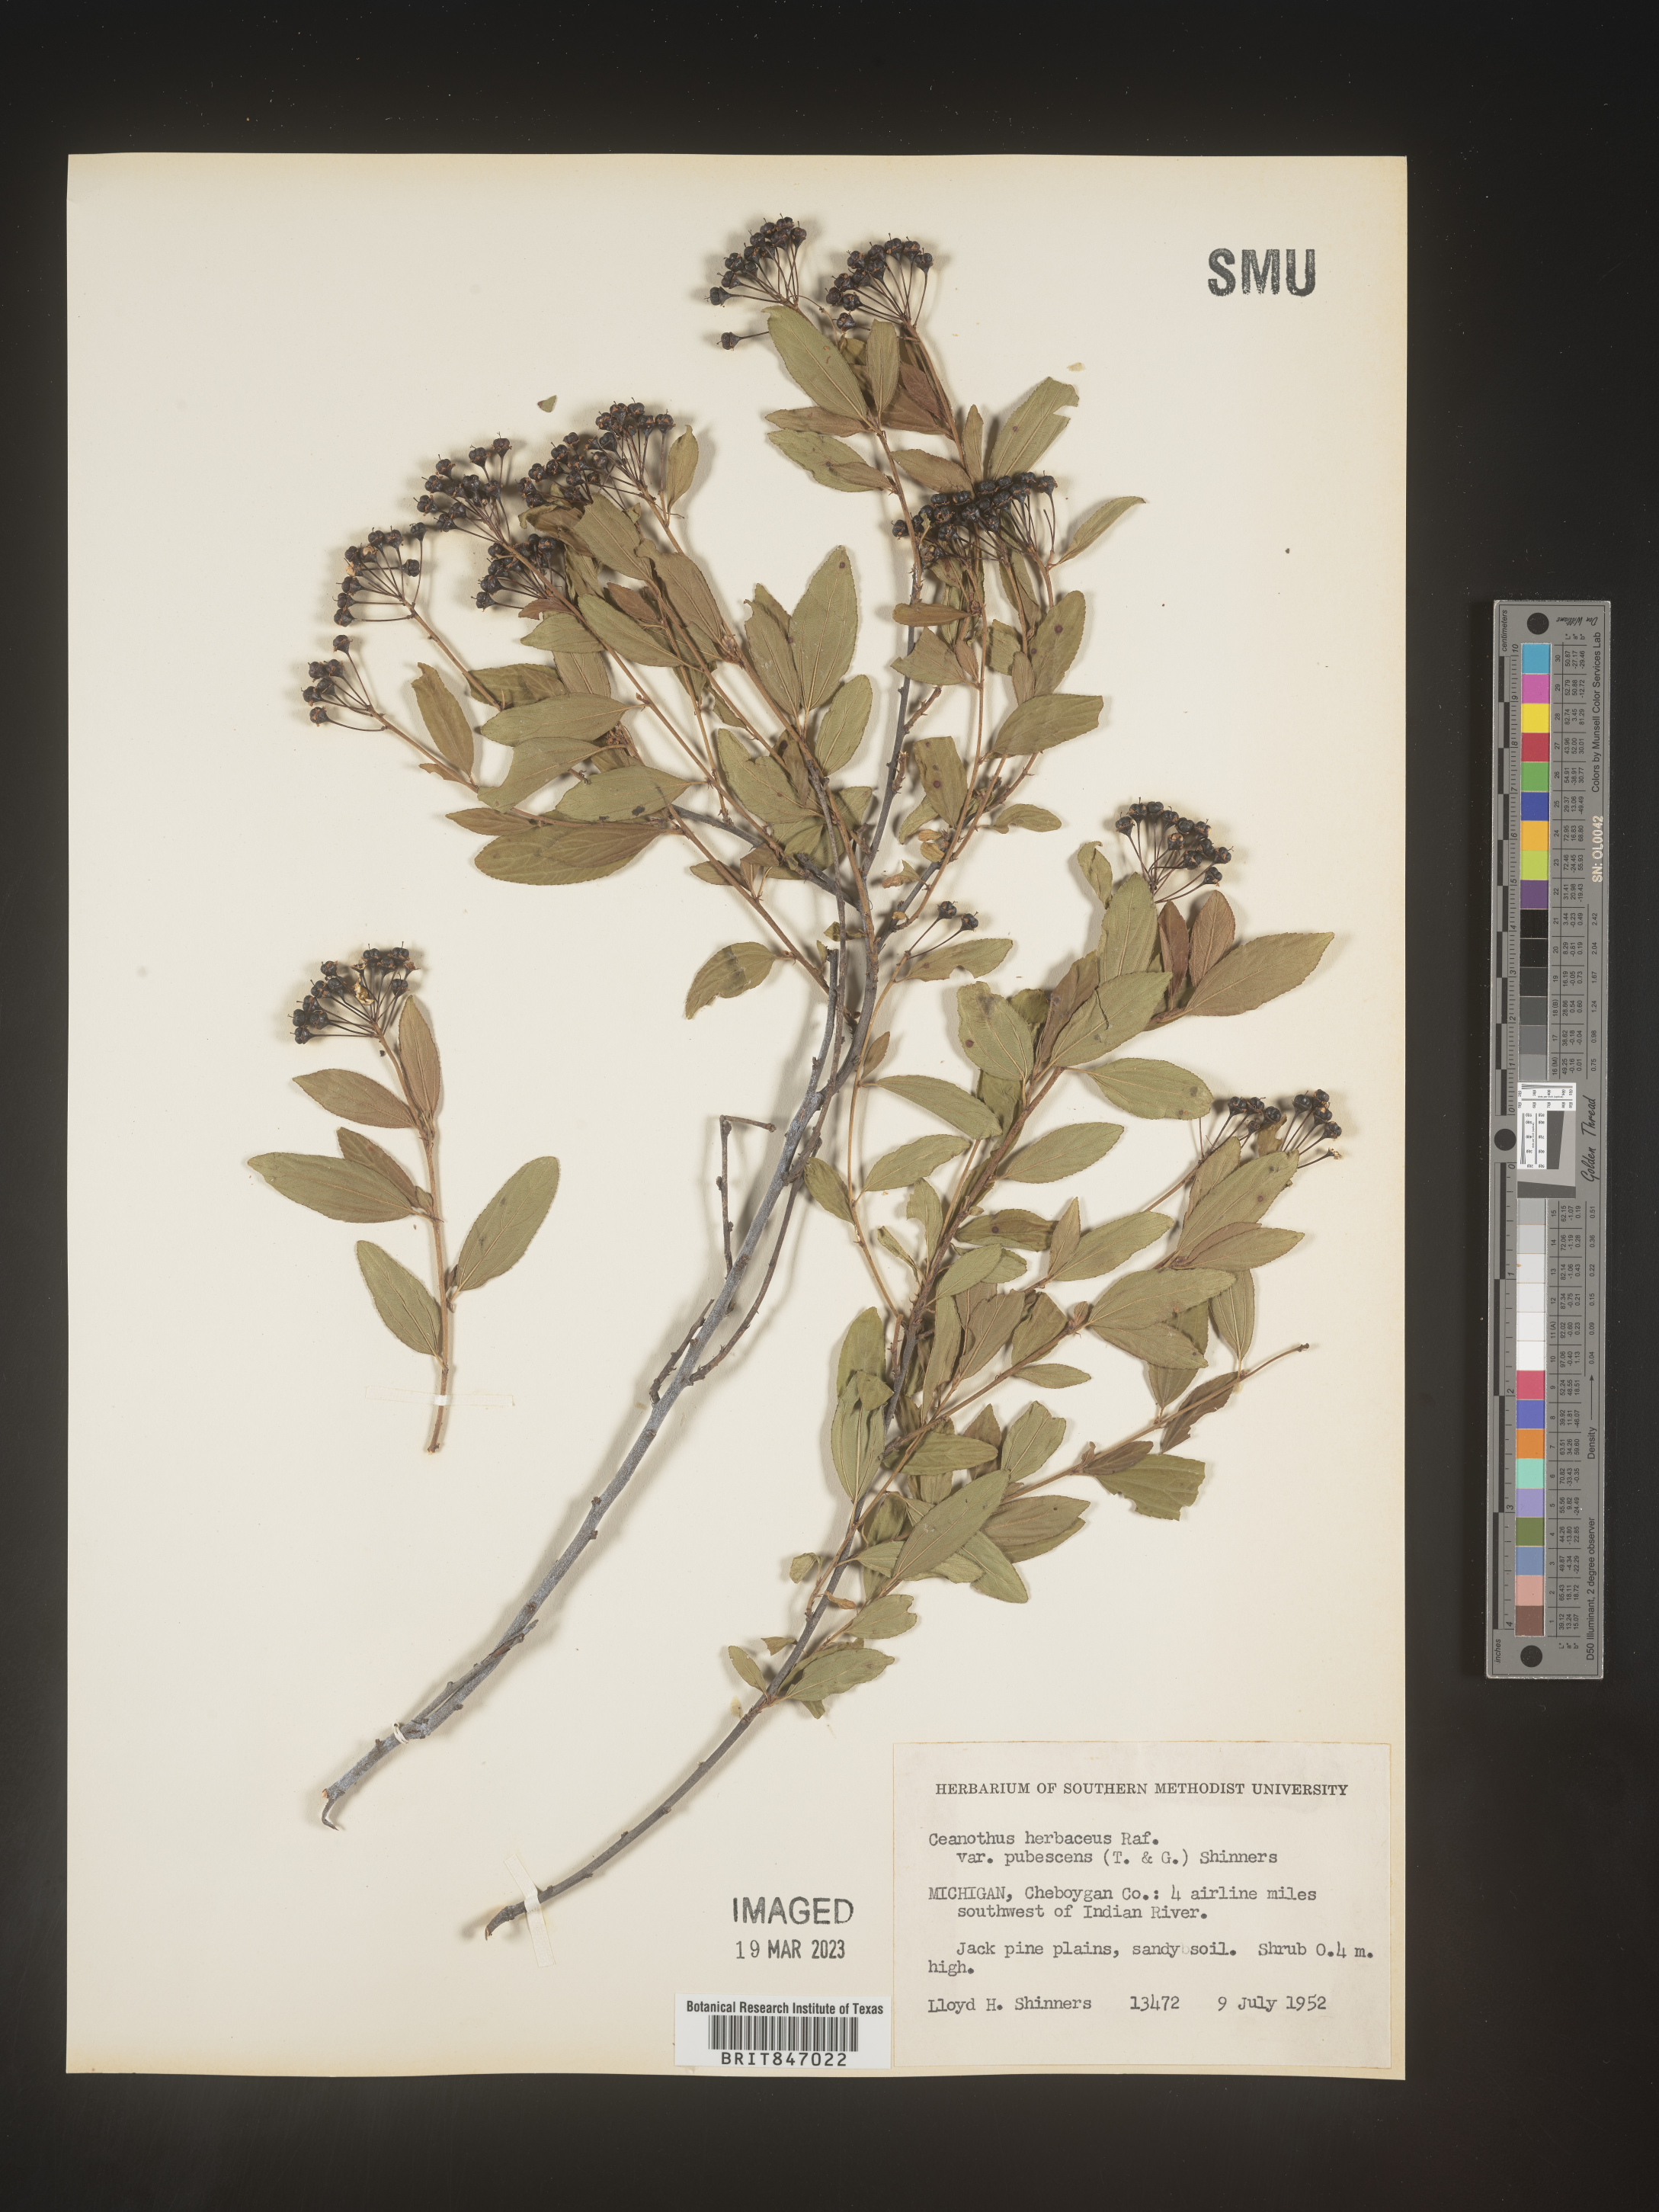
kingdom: Plantae
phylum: Tracheophyta
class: Magnoliopsida
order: Rosales
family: Rhamnaceae
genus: Ceanothus
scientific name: Ceanothus herbaceus
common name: Inland ceanothus
